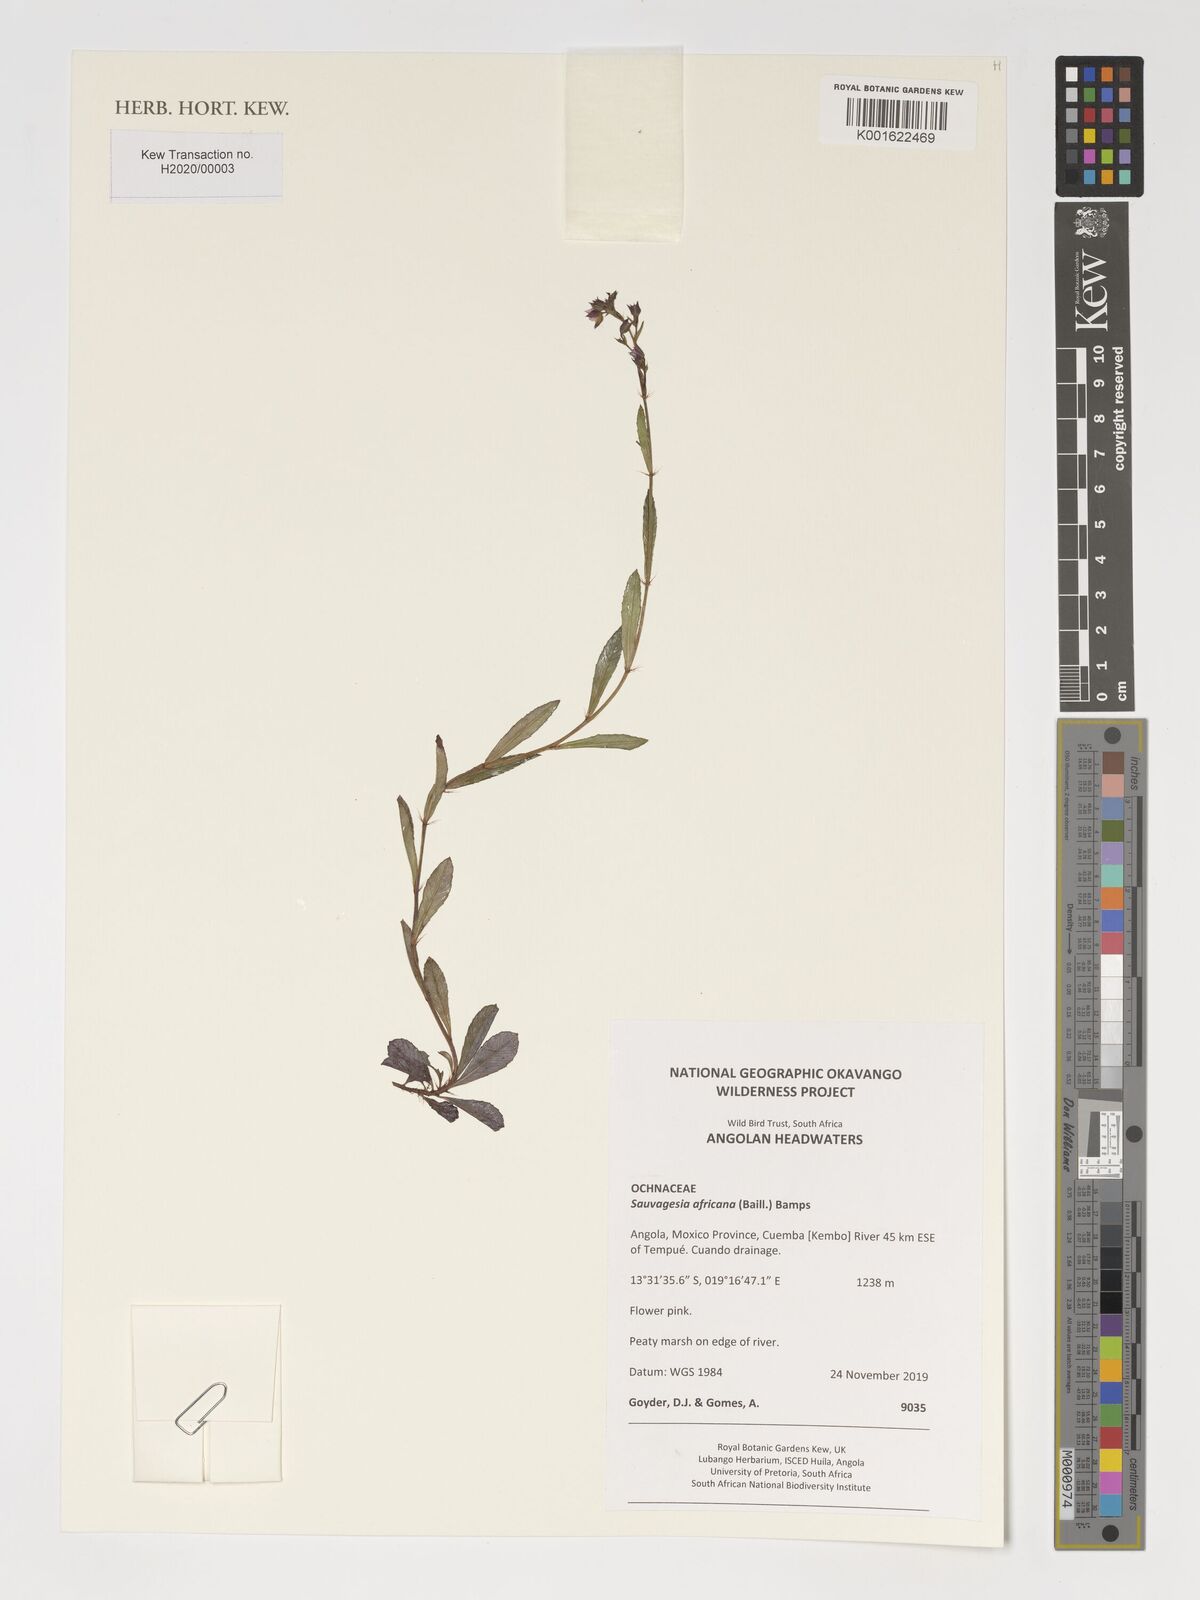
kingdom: Plantae
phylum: Tracheophyta
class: Magnoliopsida
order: Malpighiales
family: Ochnaceae
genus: Sauvagesia
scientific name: Sauvagesia africana
